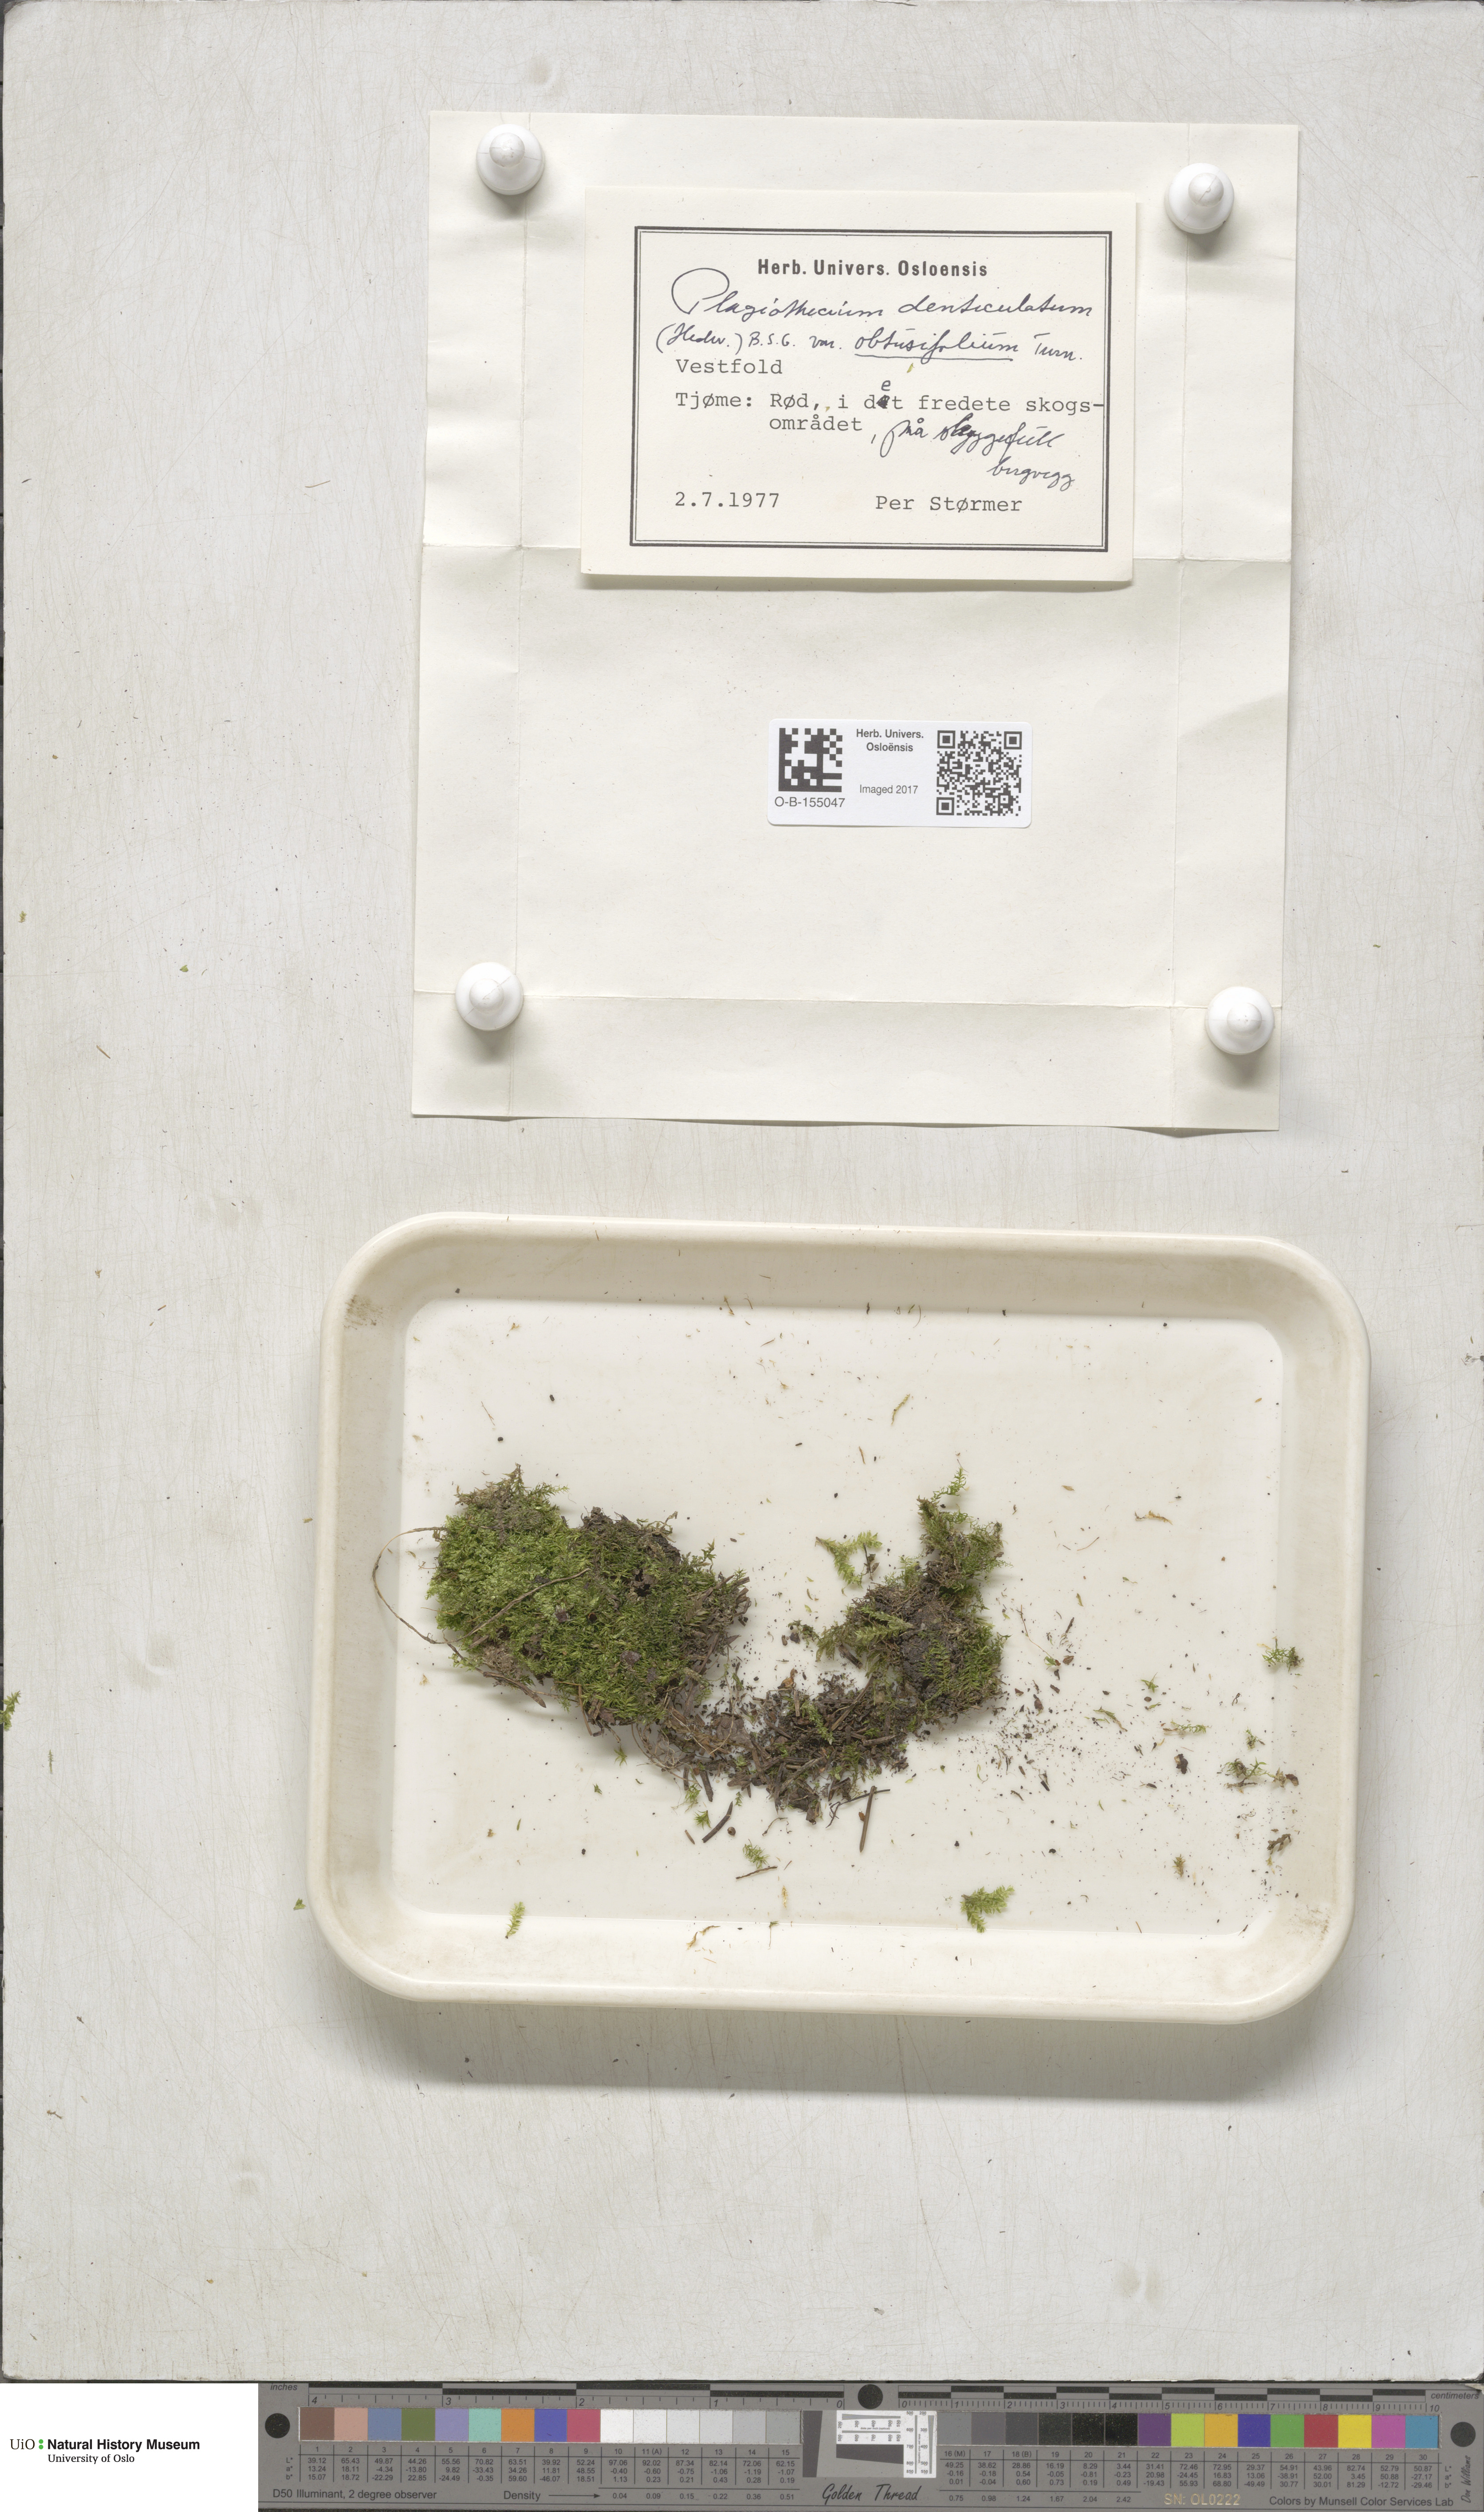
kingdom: Plantae
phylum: Bryophyta
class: Bryopsida
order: Hypnales
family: Plagiotheciaceae
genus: Plagiothecium
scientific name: Plagiothecium denticulatum
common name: Dented silk moss
